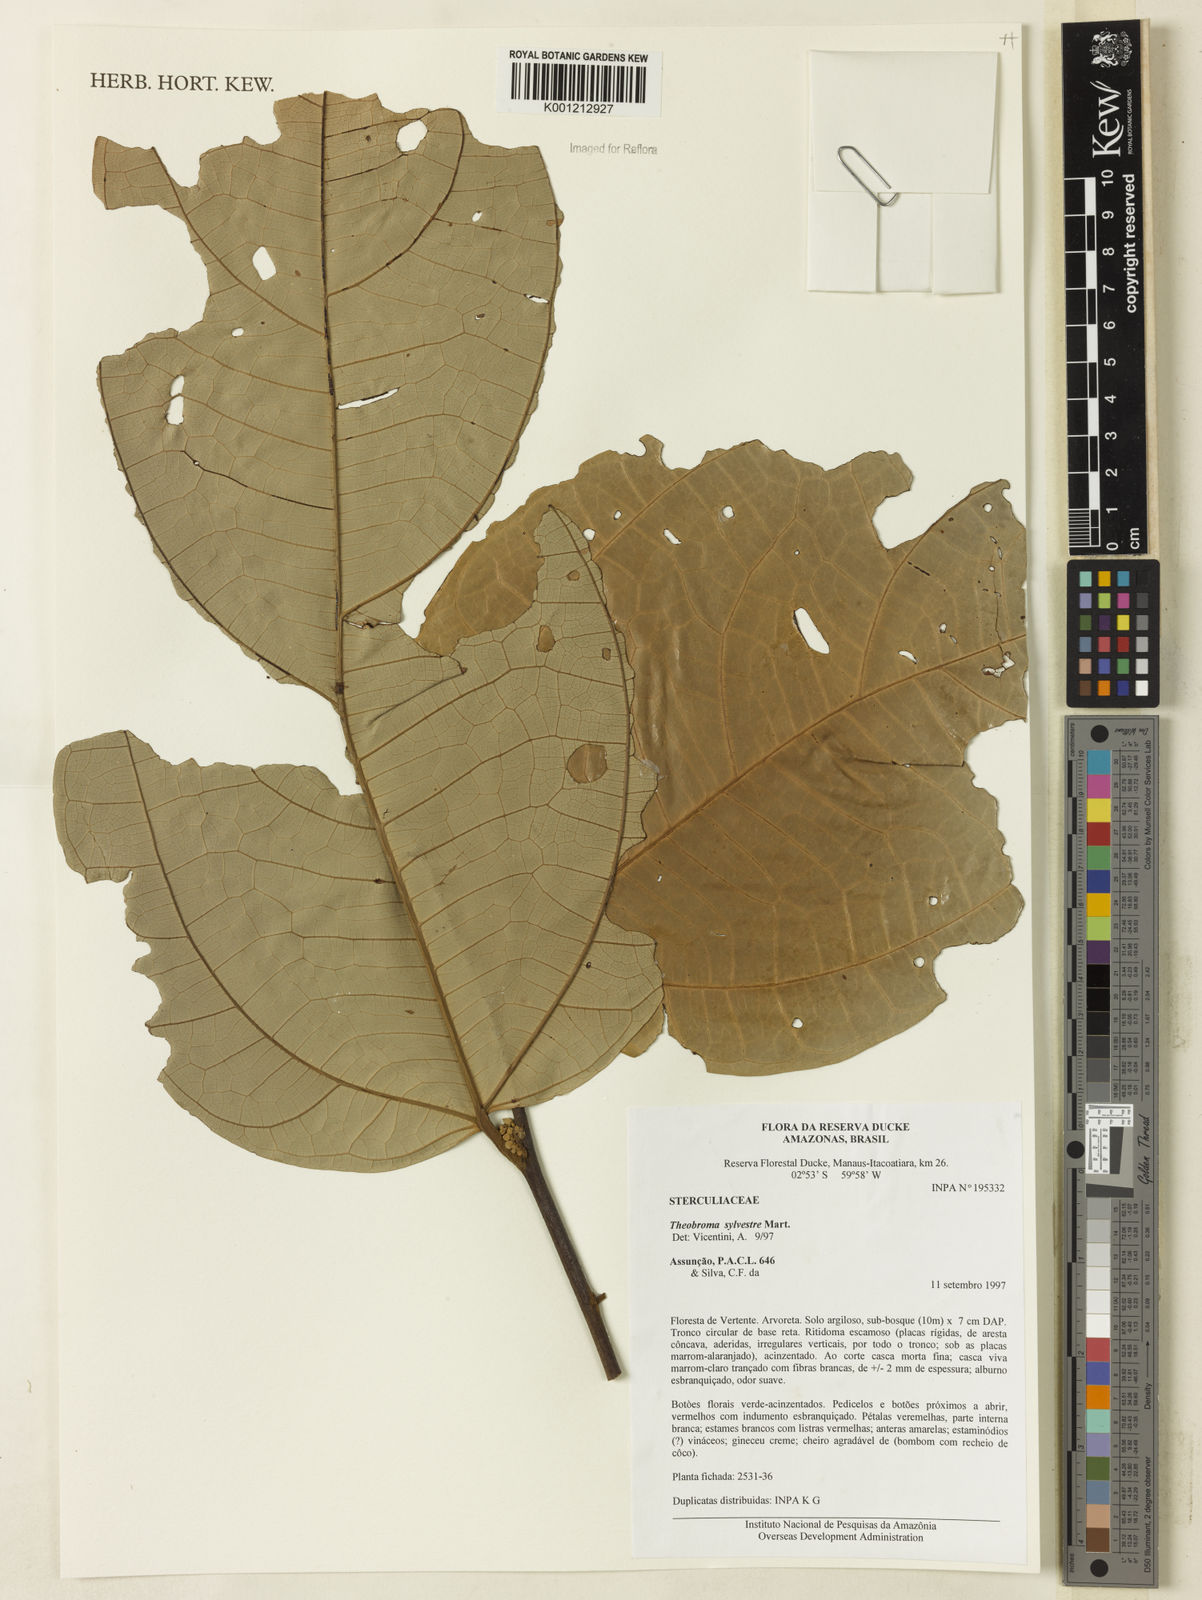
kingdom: Plantae
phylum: Tracheophyta
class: Magnoliopsida
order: Malvales
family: Malvaceae
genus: Theobroma
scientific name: Theobroma sylvestre
